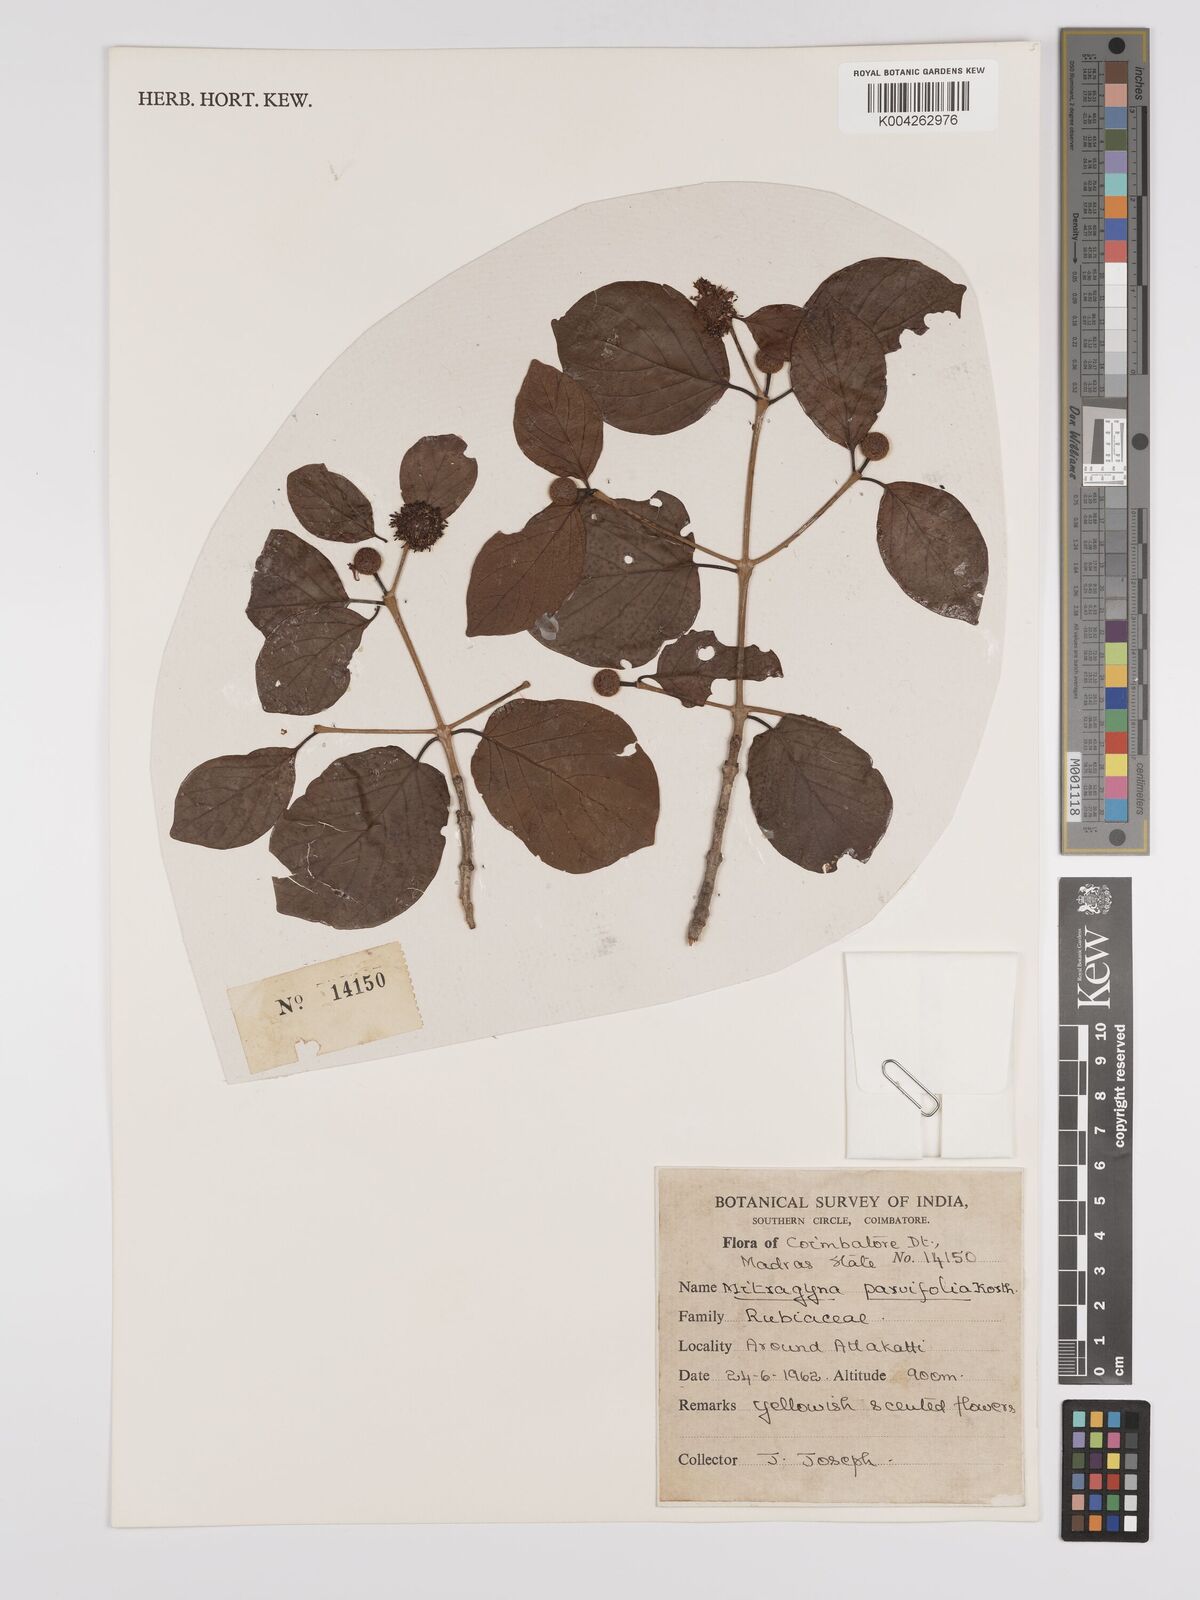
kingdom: Plantae
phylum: Tracheophyta
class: Magnoliopsida
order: Gentianales
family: Rubiaceae
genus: Mitragyna
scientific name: Mitragyna parvifolia
